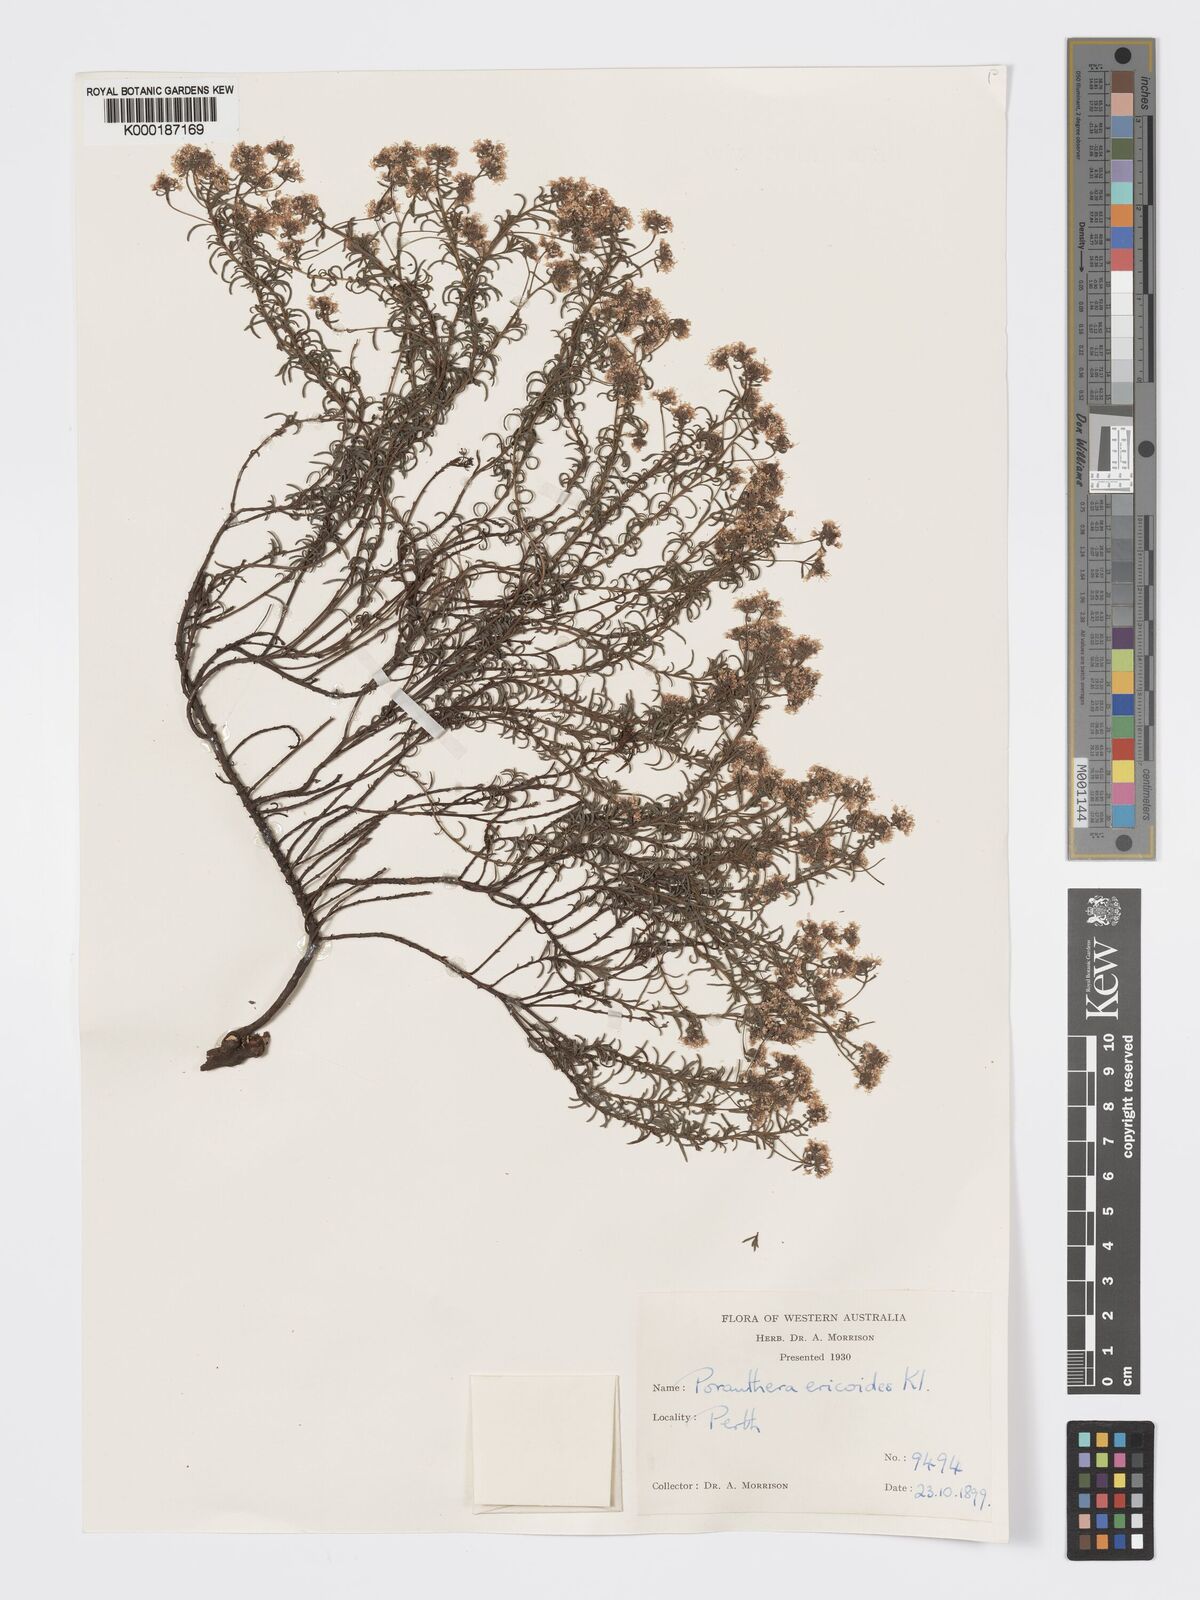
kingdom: Plantae
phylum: Tracheophyta
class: Magnoliopsida
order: Malpighiales
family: Phyllanthaceae
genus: Poranthera
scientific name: Poranthera ericoides
